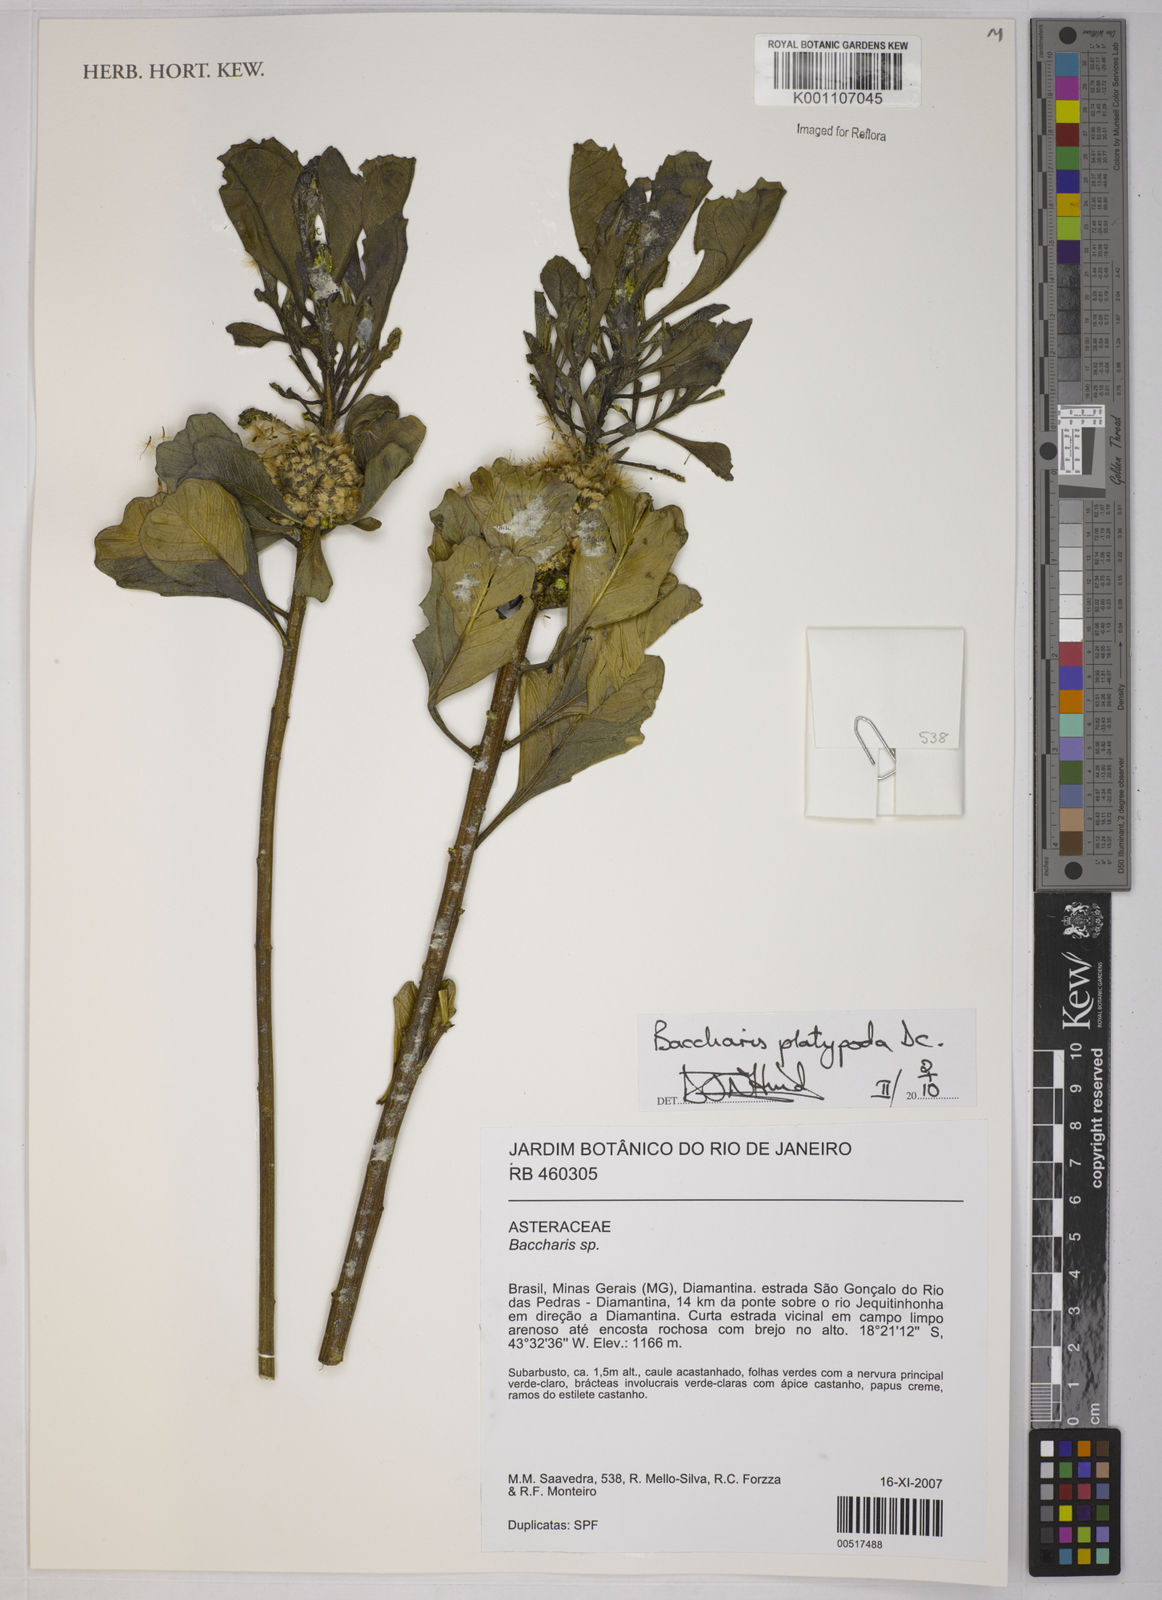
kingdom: Plantae
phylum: Tracheophyta
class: Magnoliopsida
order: Asterales
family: Asteraceae
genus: Baccharis
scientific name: Baccharis platypoda
